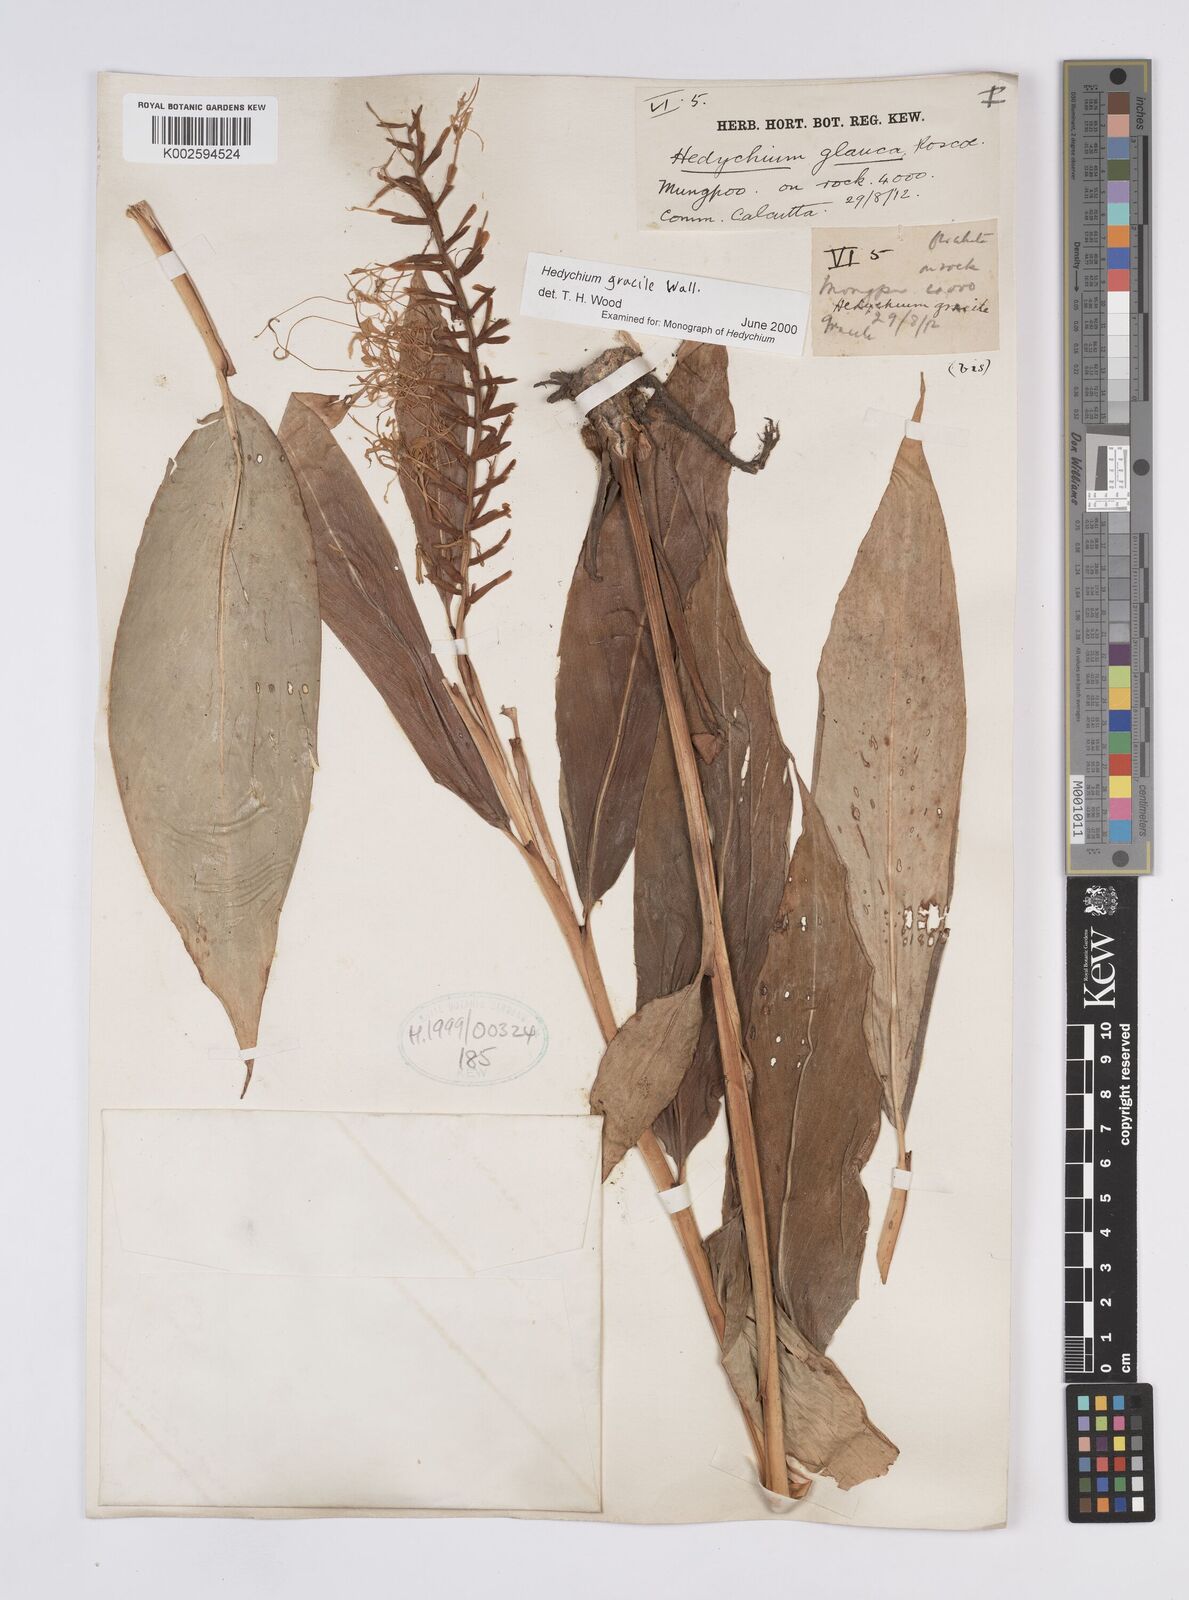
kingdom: Plantae
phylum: Tracheophyta
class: Liliopsida
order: Zingiberales
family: Zingiberaceae
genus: Hedychium
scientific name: Hedychium gracile
